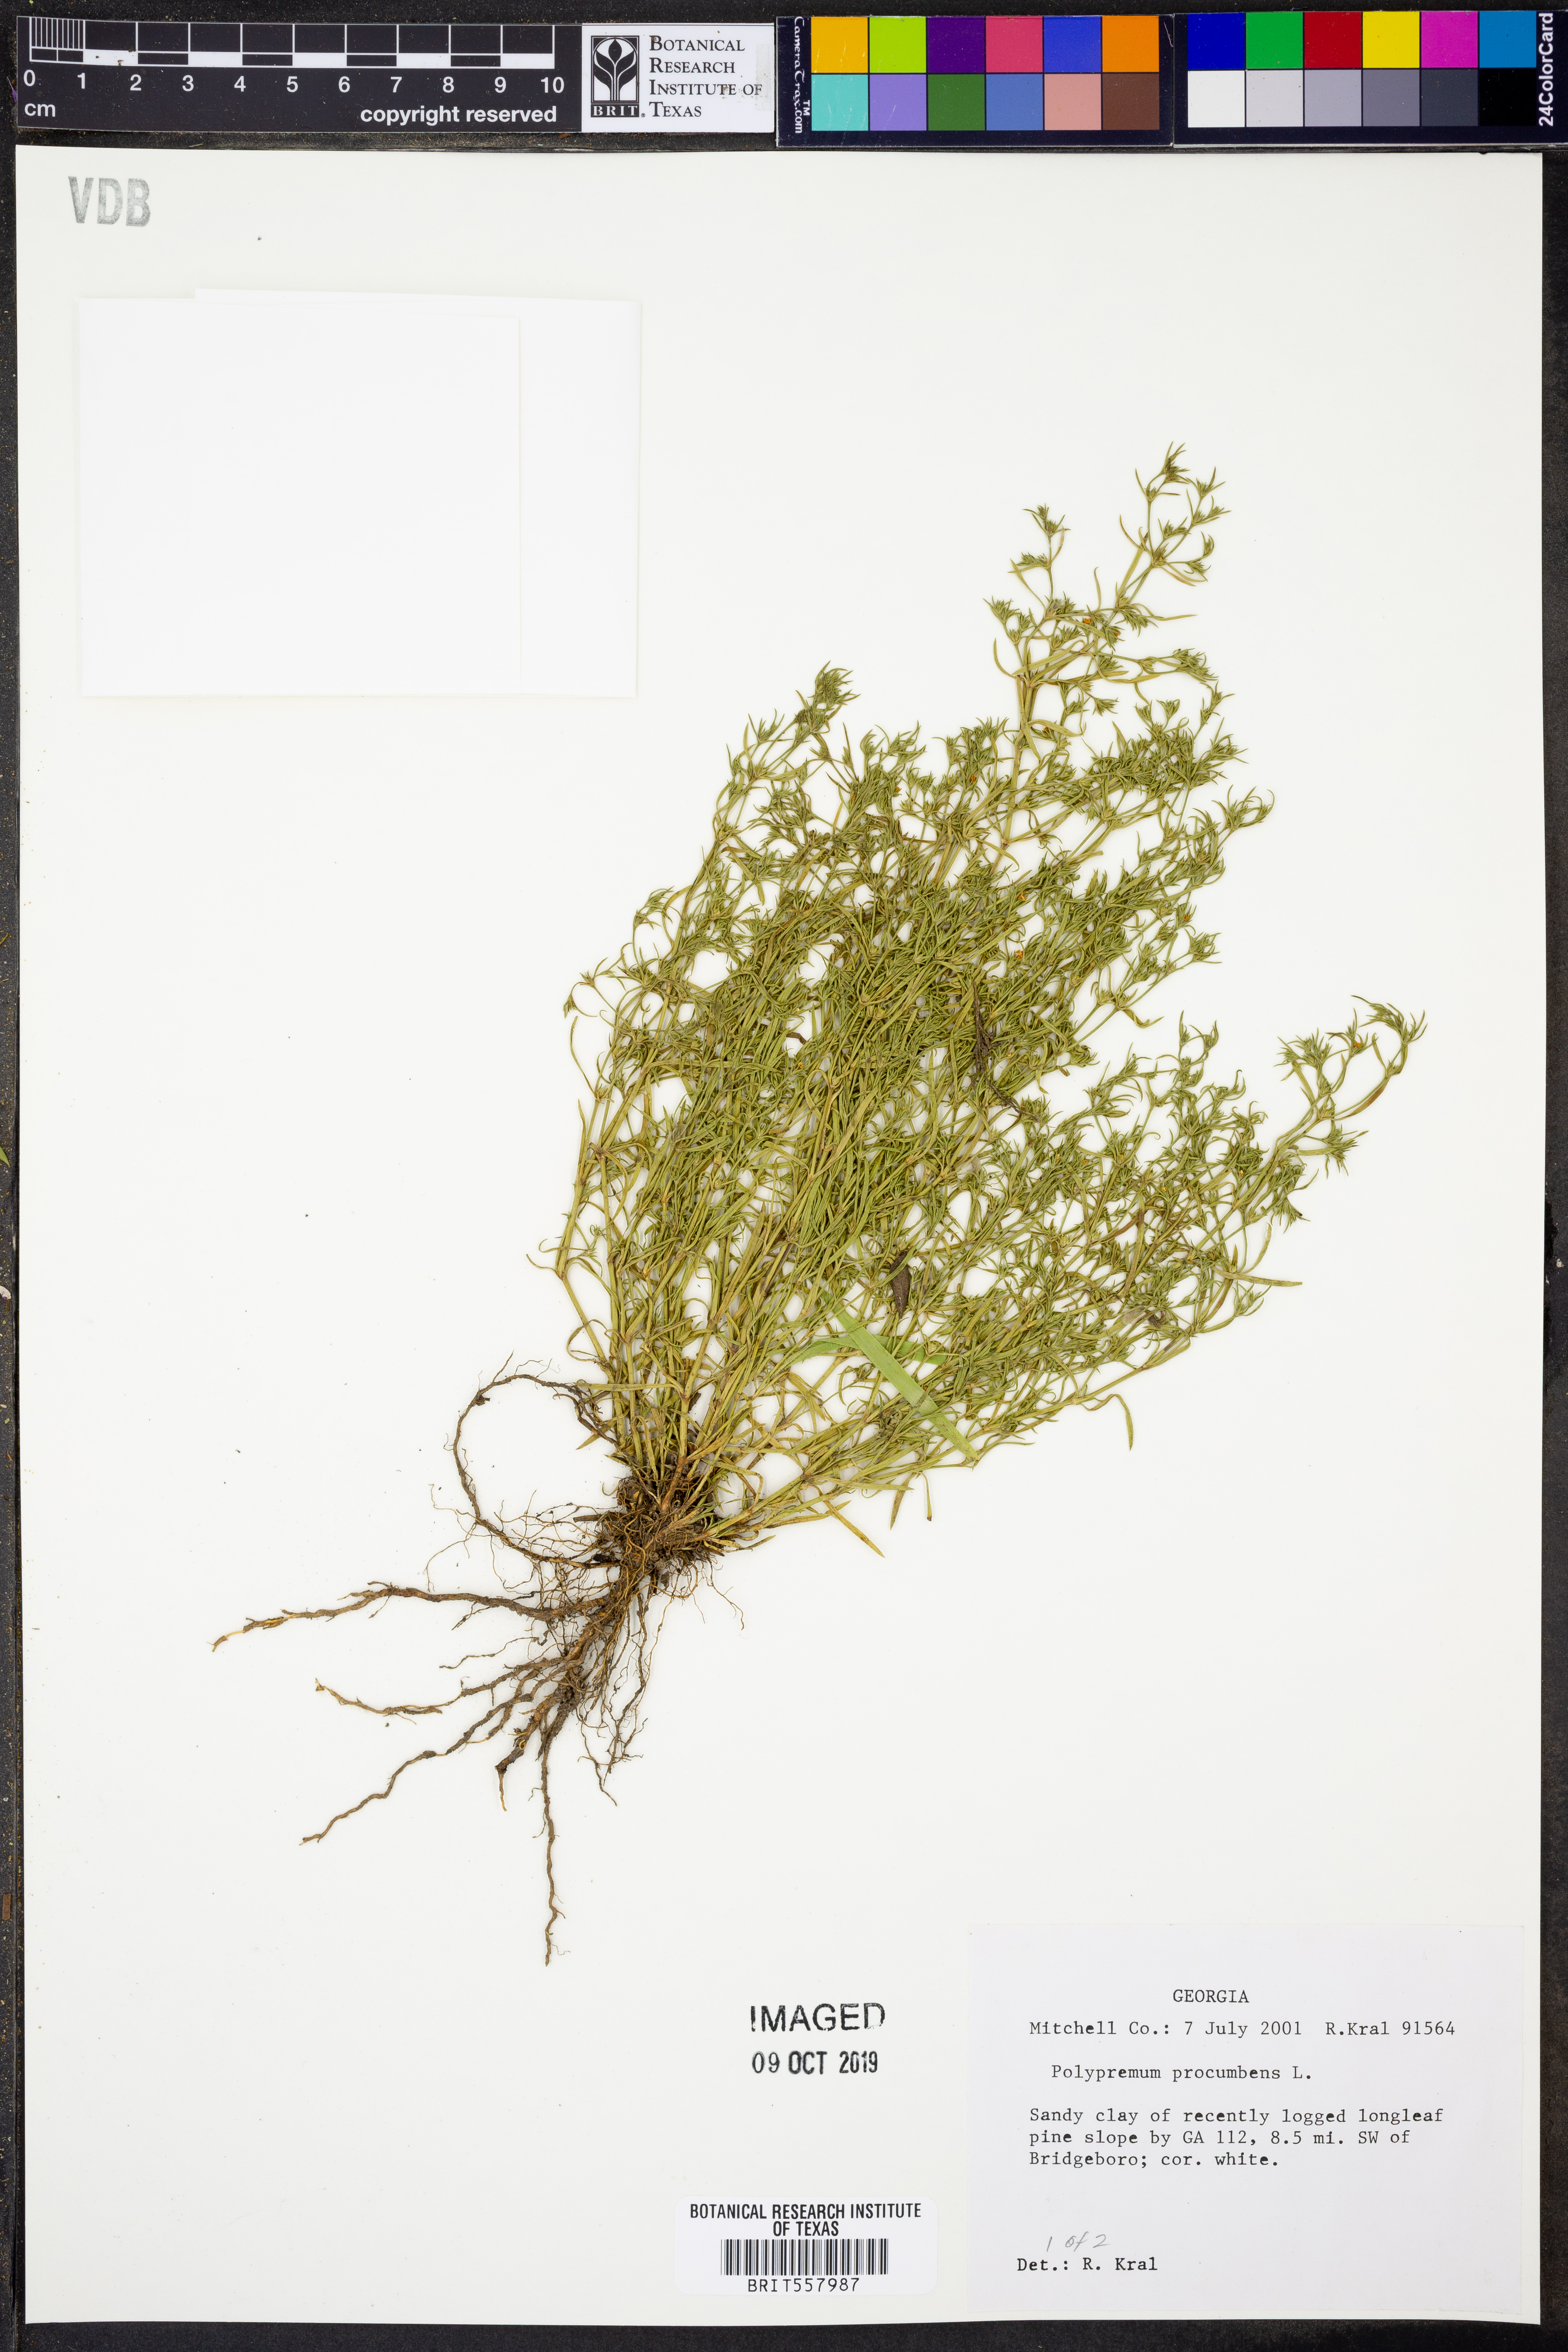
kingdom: Plantae
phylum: Tracheophyta
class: Magnoliopsida
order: Lamiales
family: Tetrachondraceae
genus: Polypremum
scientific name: Polypremum procumbens
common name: Juniper-leaf
